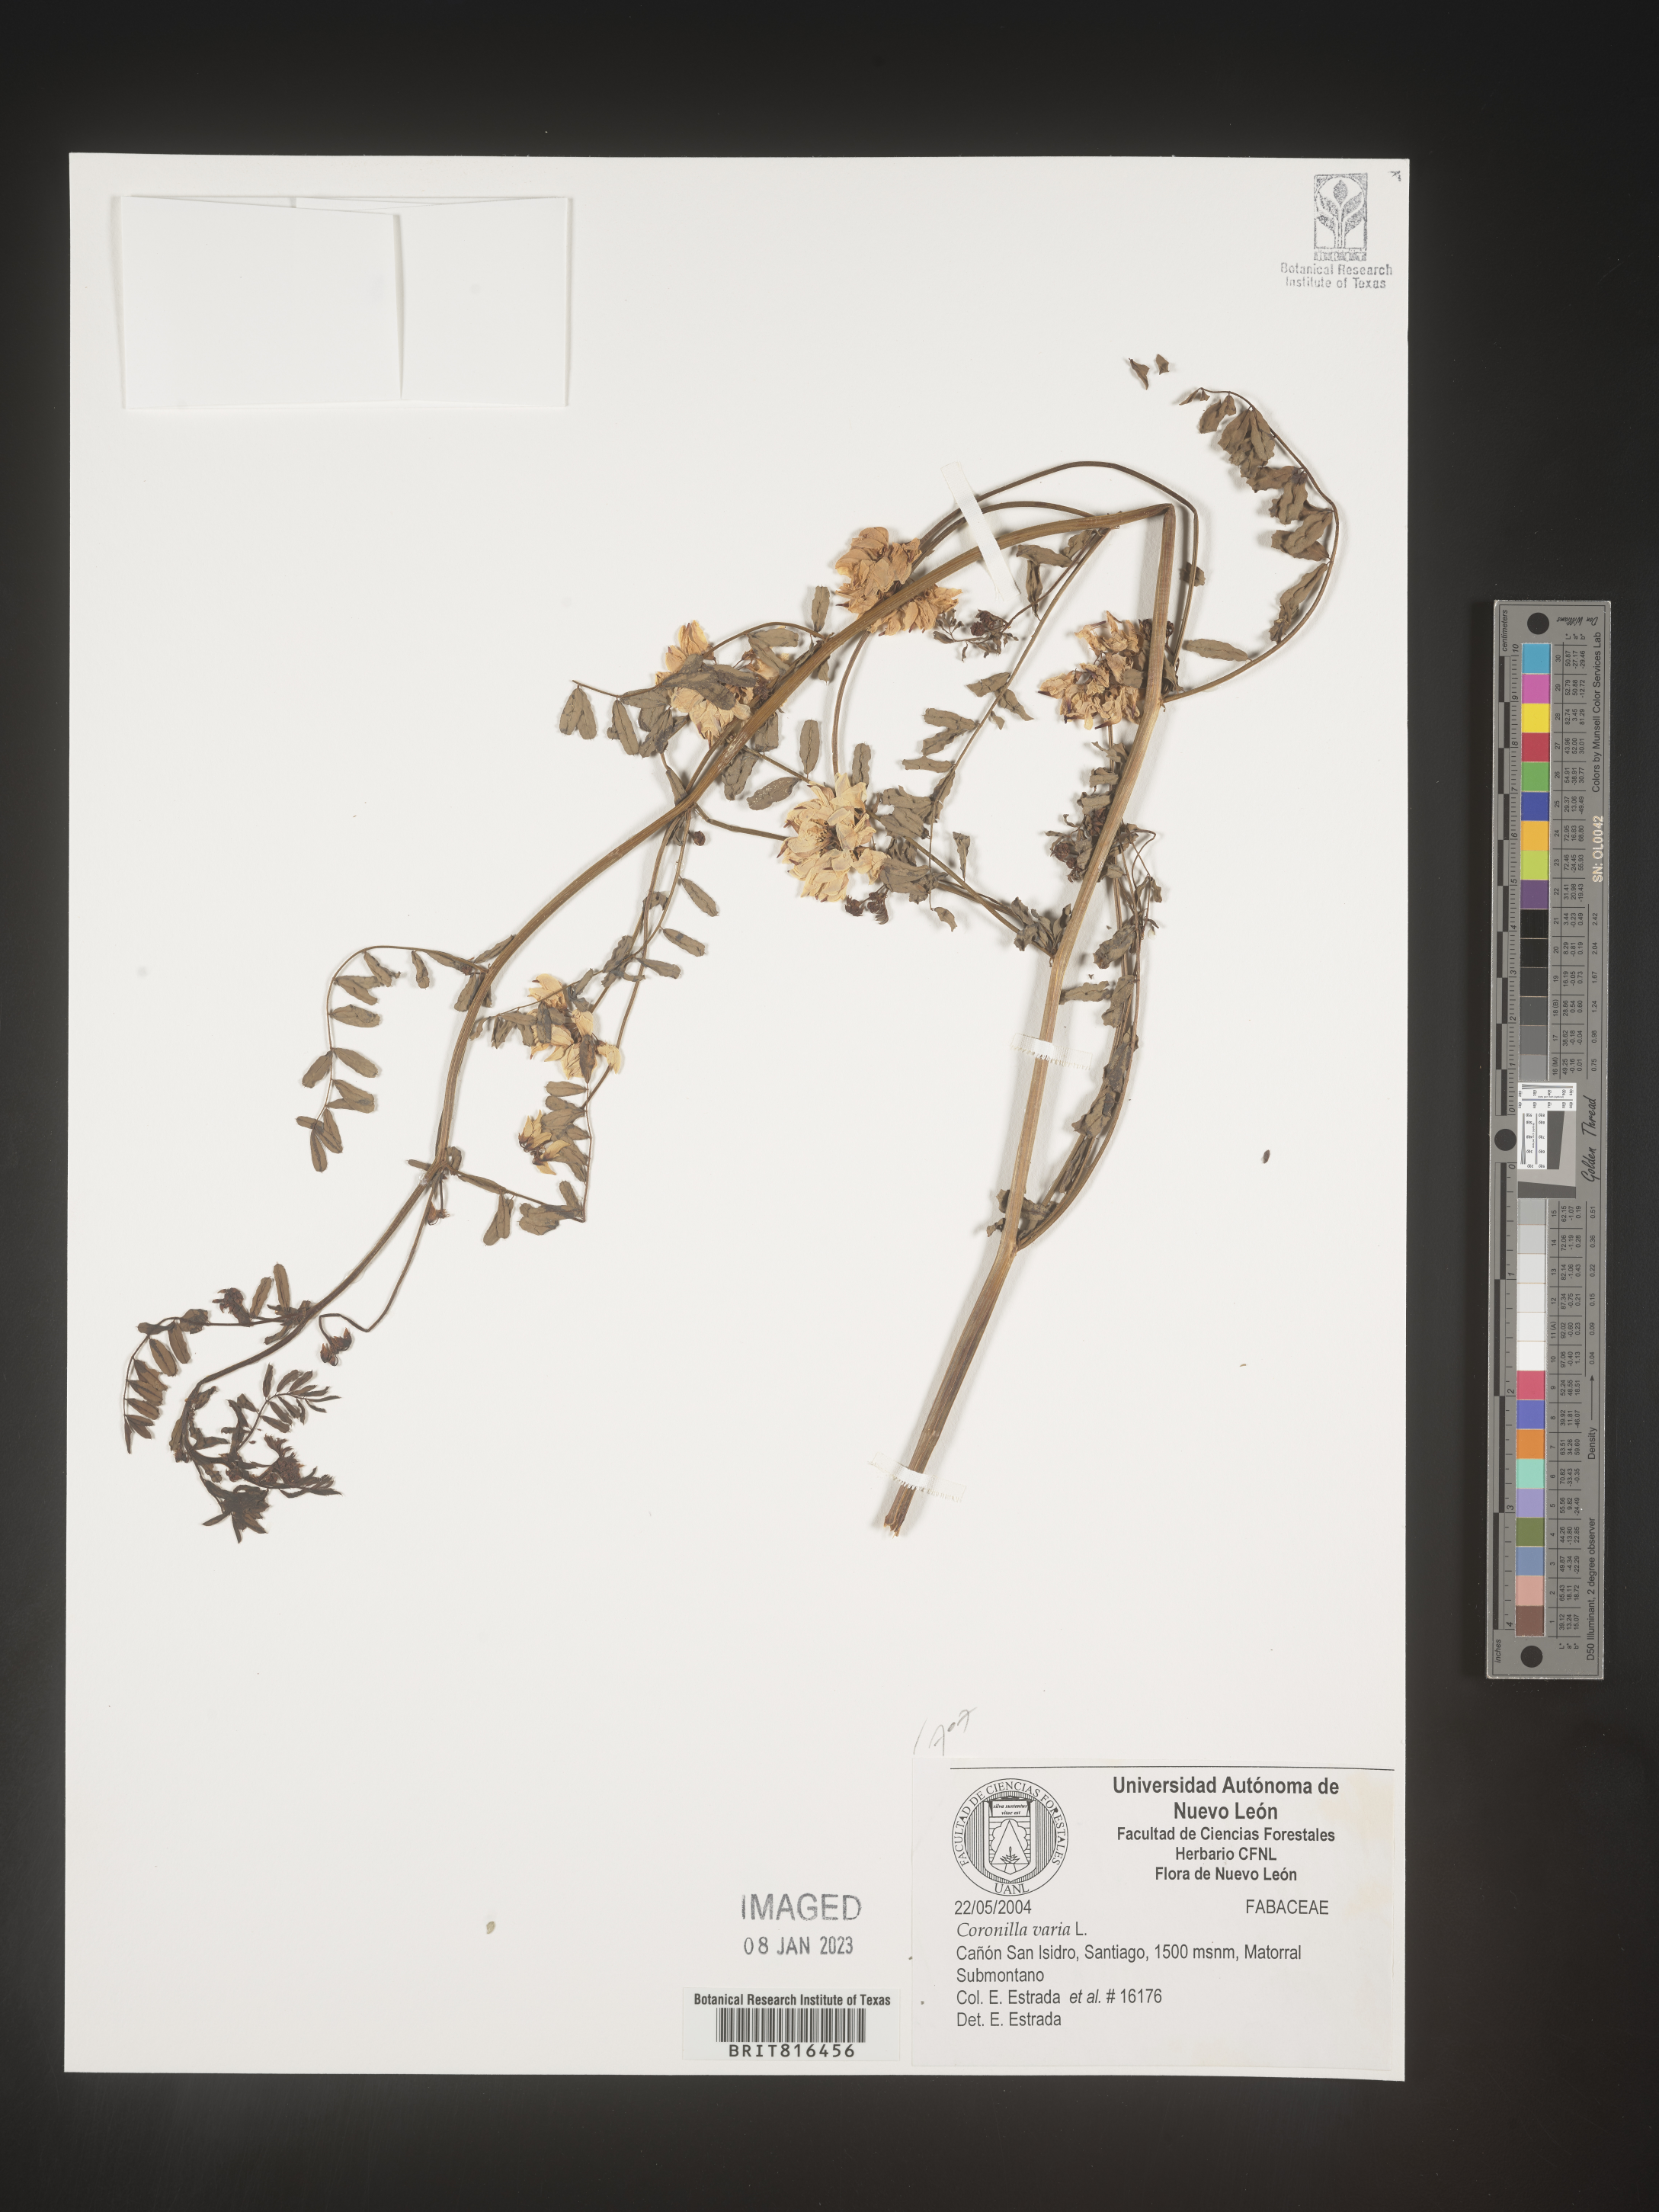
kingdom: Plantae
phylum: Tracheophyta
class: Magnoliopsida
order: Fabales
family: Fabaceae
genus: Coronilla
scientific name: Coronilla
